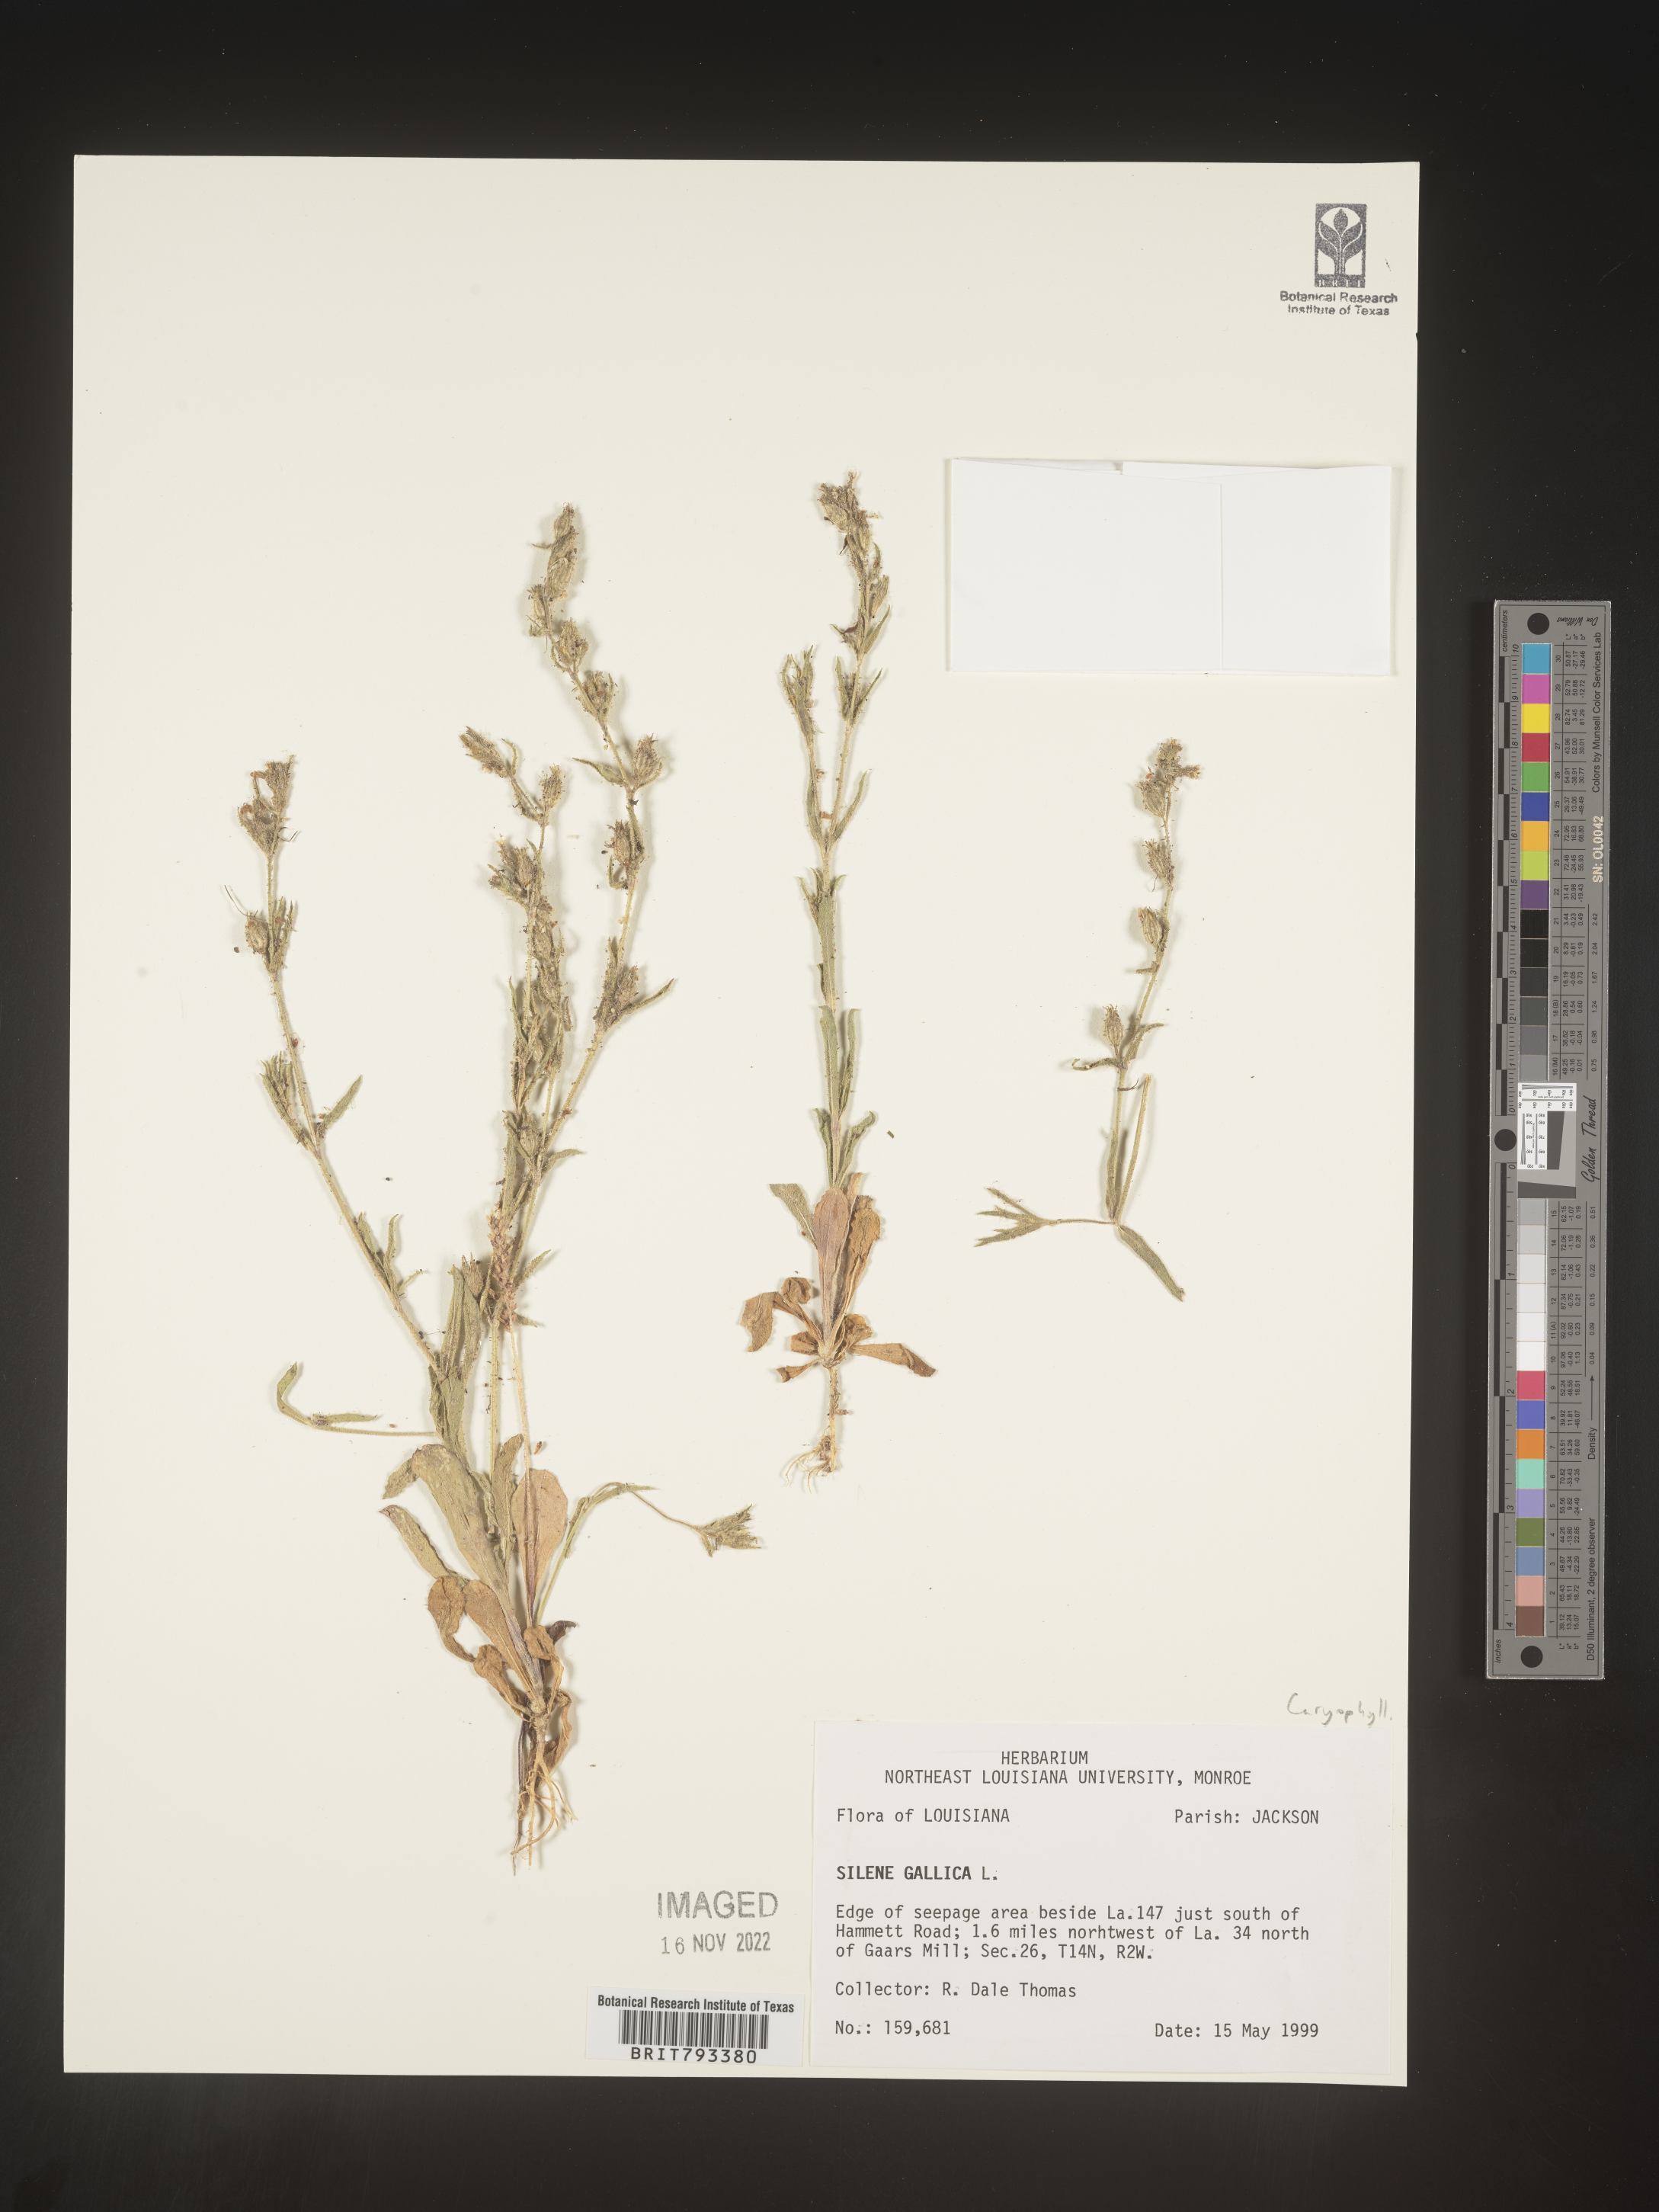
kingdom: Plantae
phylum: Tracheophyta
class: Magnoliopsida
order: Caryophyllales
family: Caryophyllaceae
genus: Silene
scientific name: Silene gallica
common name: Small-flowered catchfly
